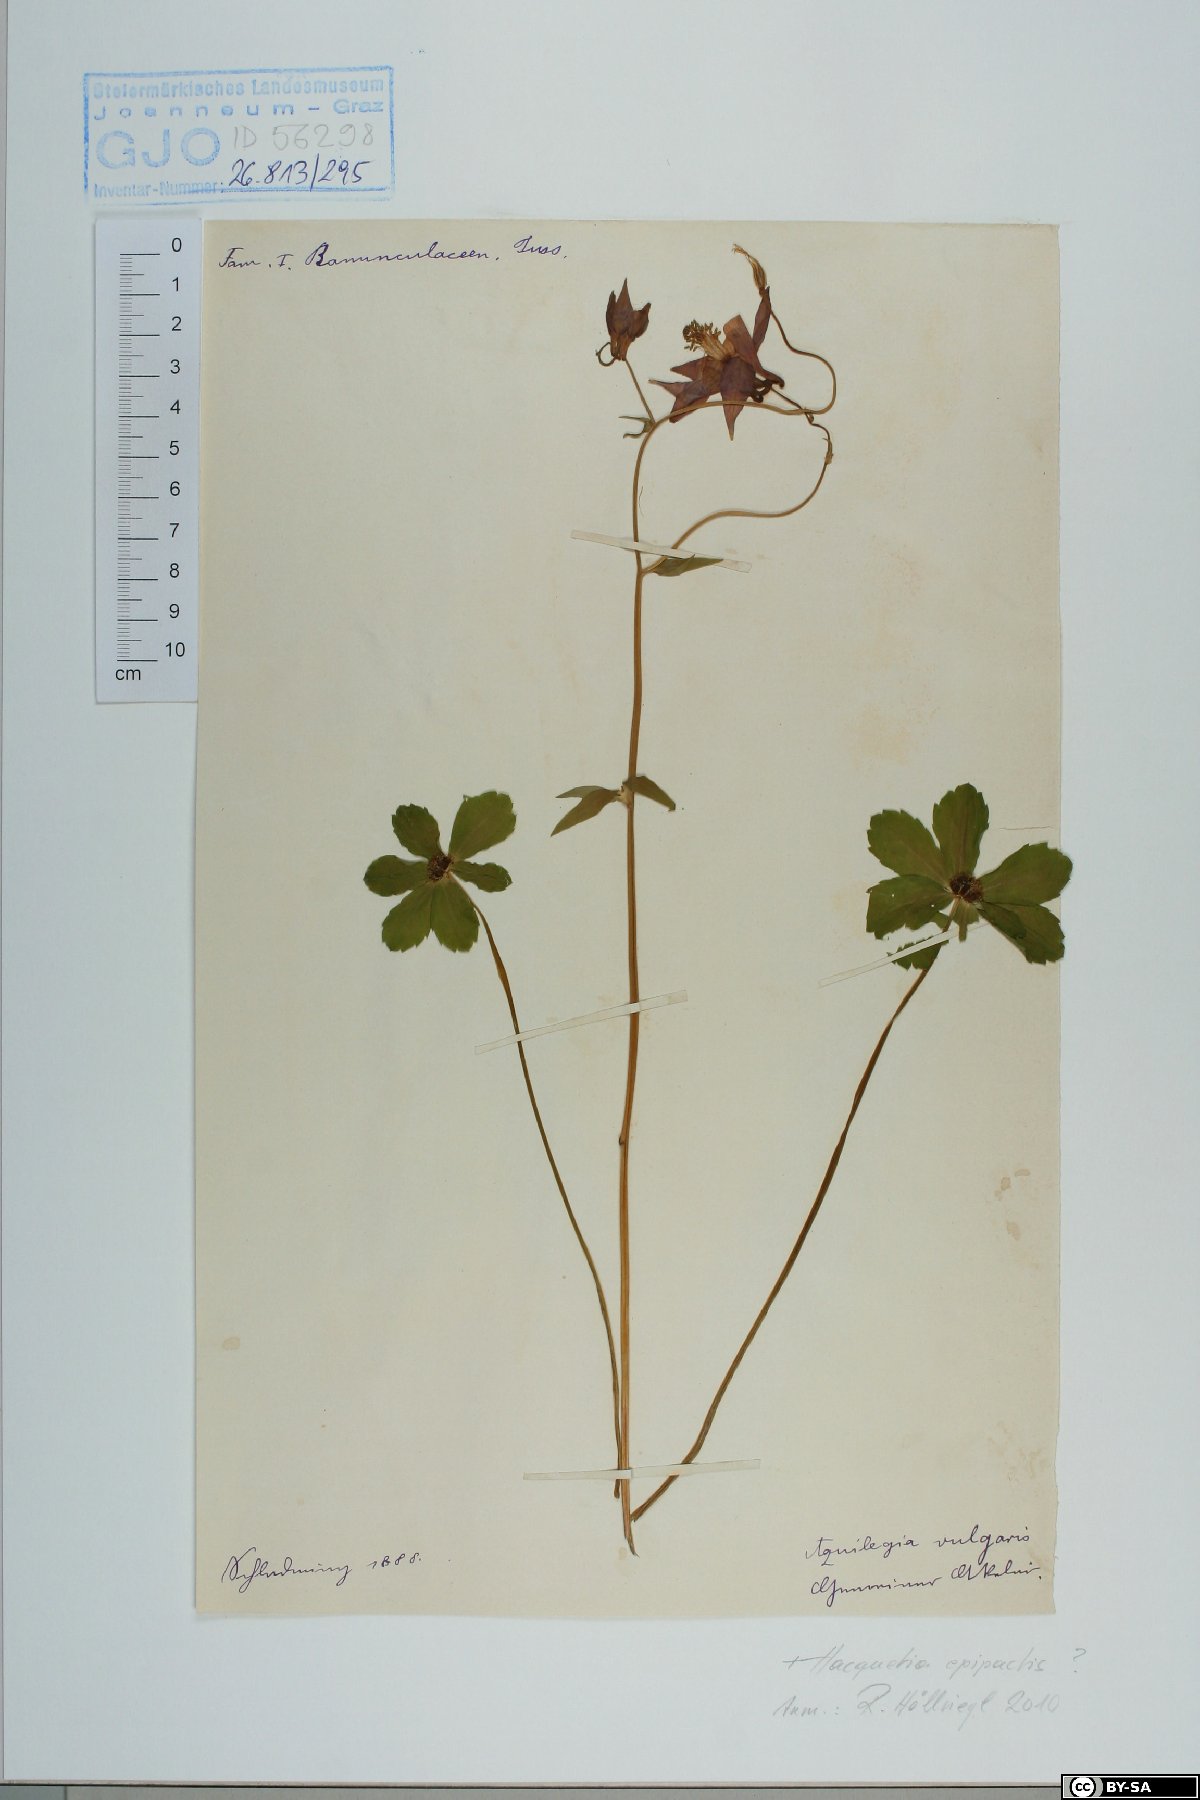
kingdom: Plantae
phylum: Tracheophyta
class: Magnoliopsida
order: Ranunculales
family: Ranunculaceae
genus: Aquilegia
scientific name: Aquilegia vulgaris
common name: Columbine
